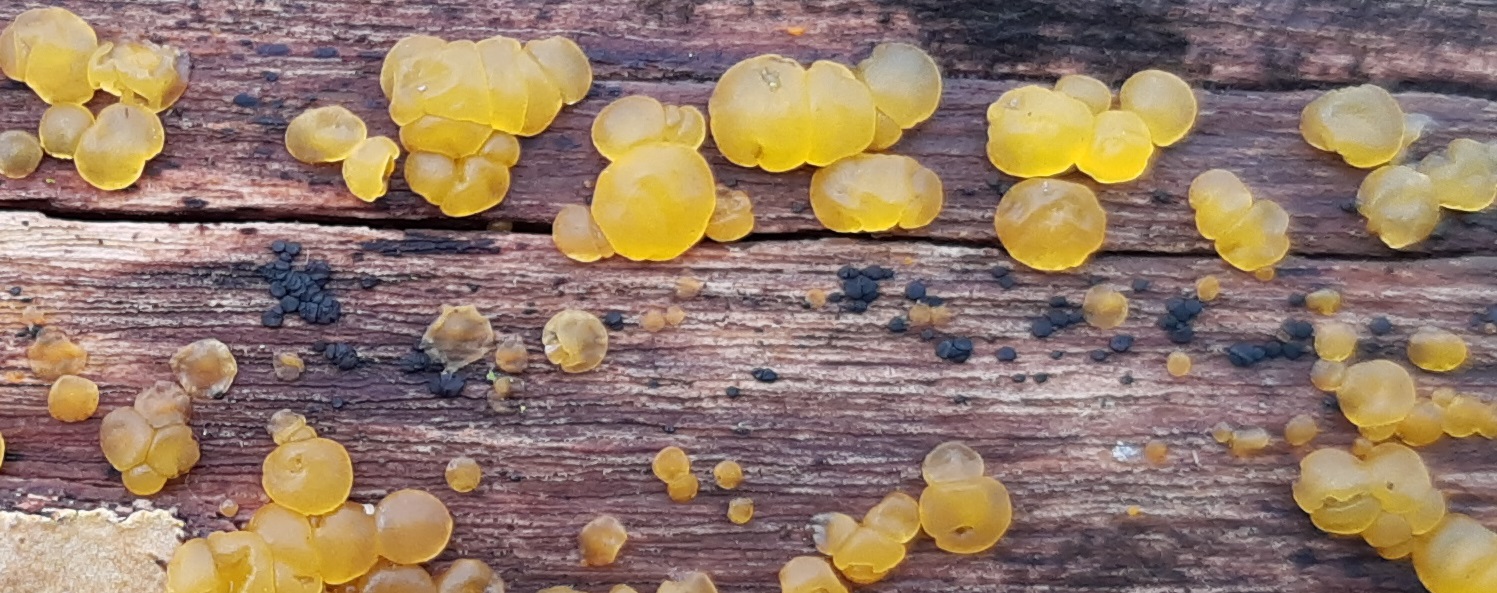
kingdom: Fungi
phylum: Ascomycota
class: Leotiomycetes
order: Helotiales
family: Helotiaceae
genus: Durella
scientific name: Durella
